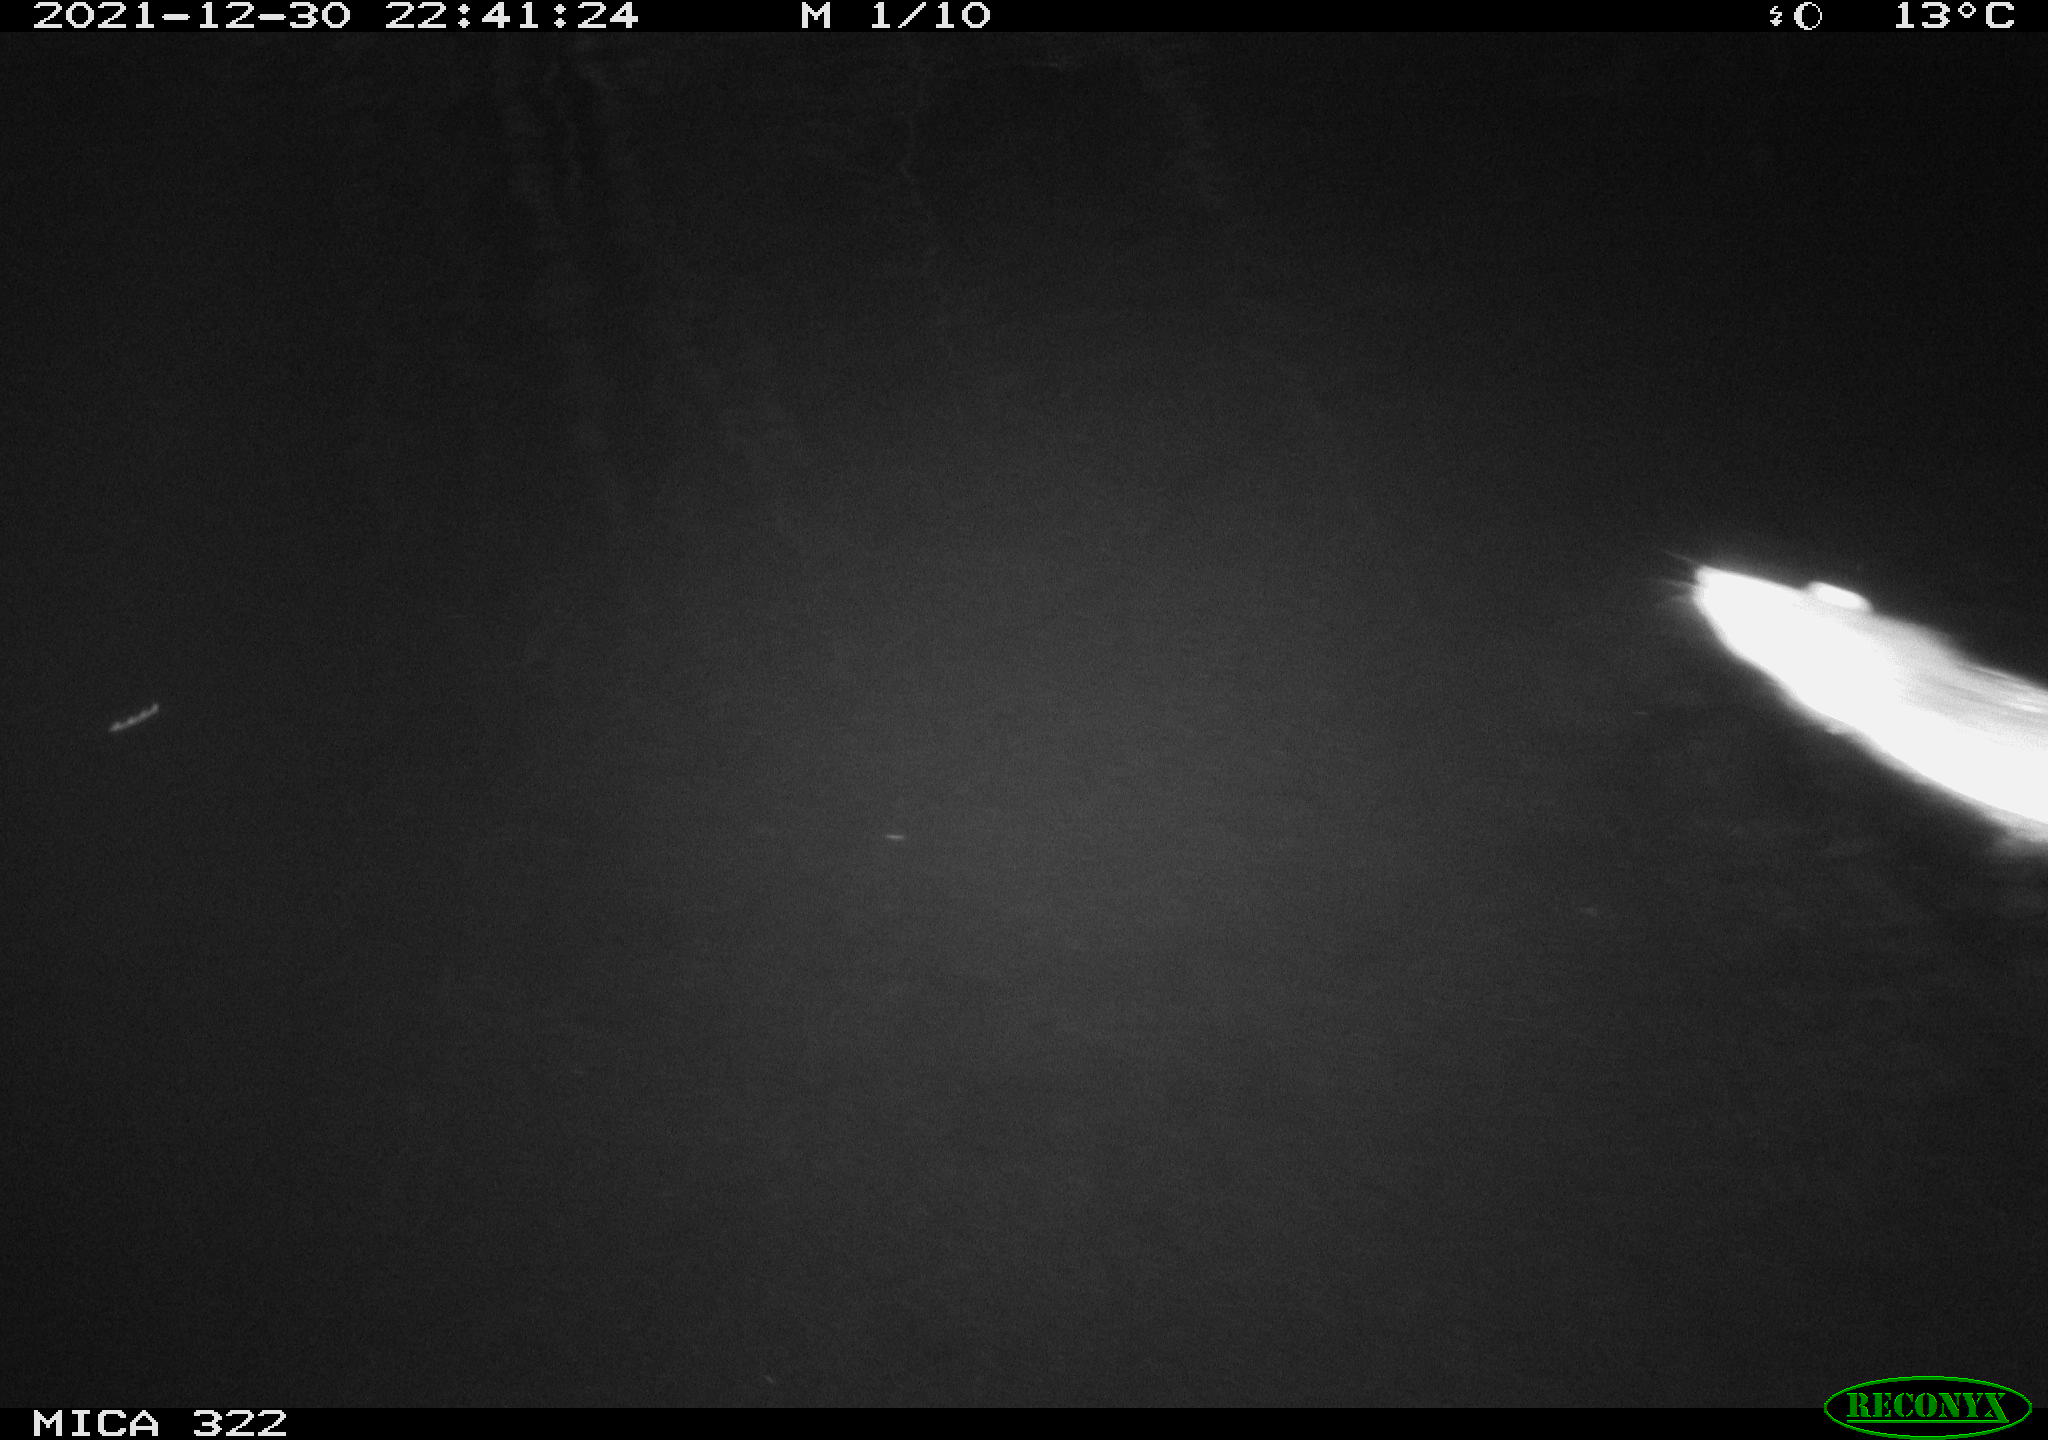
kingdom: Animalia
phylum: Chordata
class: Mammalia
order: Rodentia
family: Muridae
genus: Rattus
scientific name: Rattus norvegicus
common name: Brown rat
